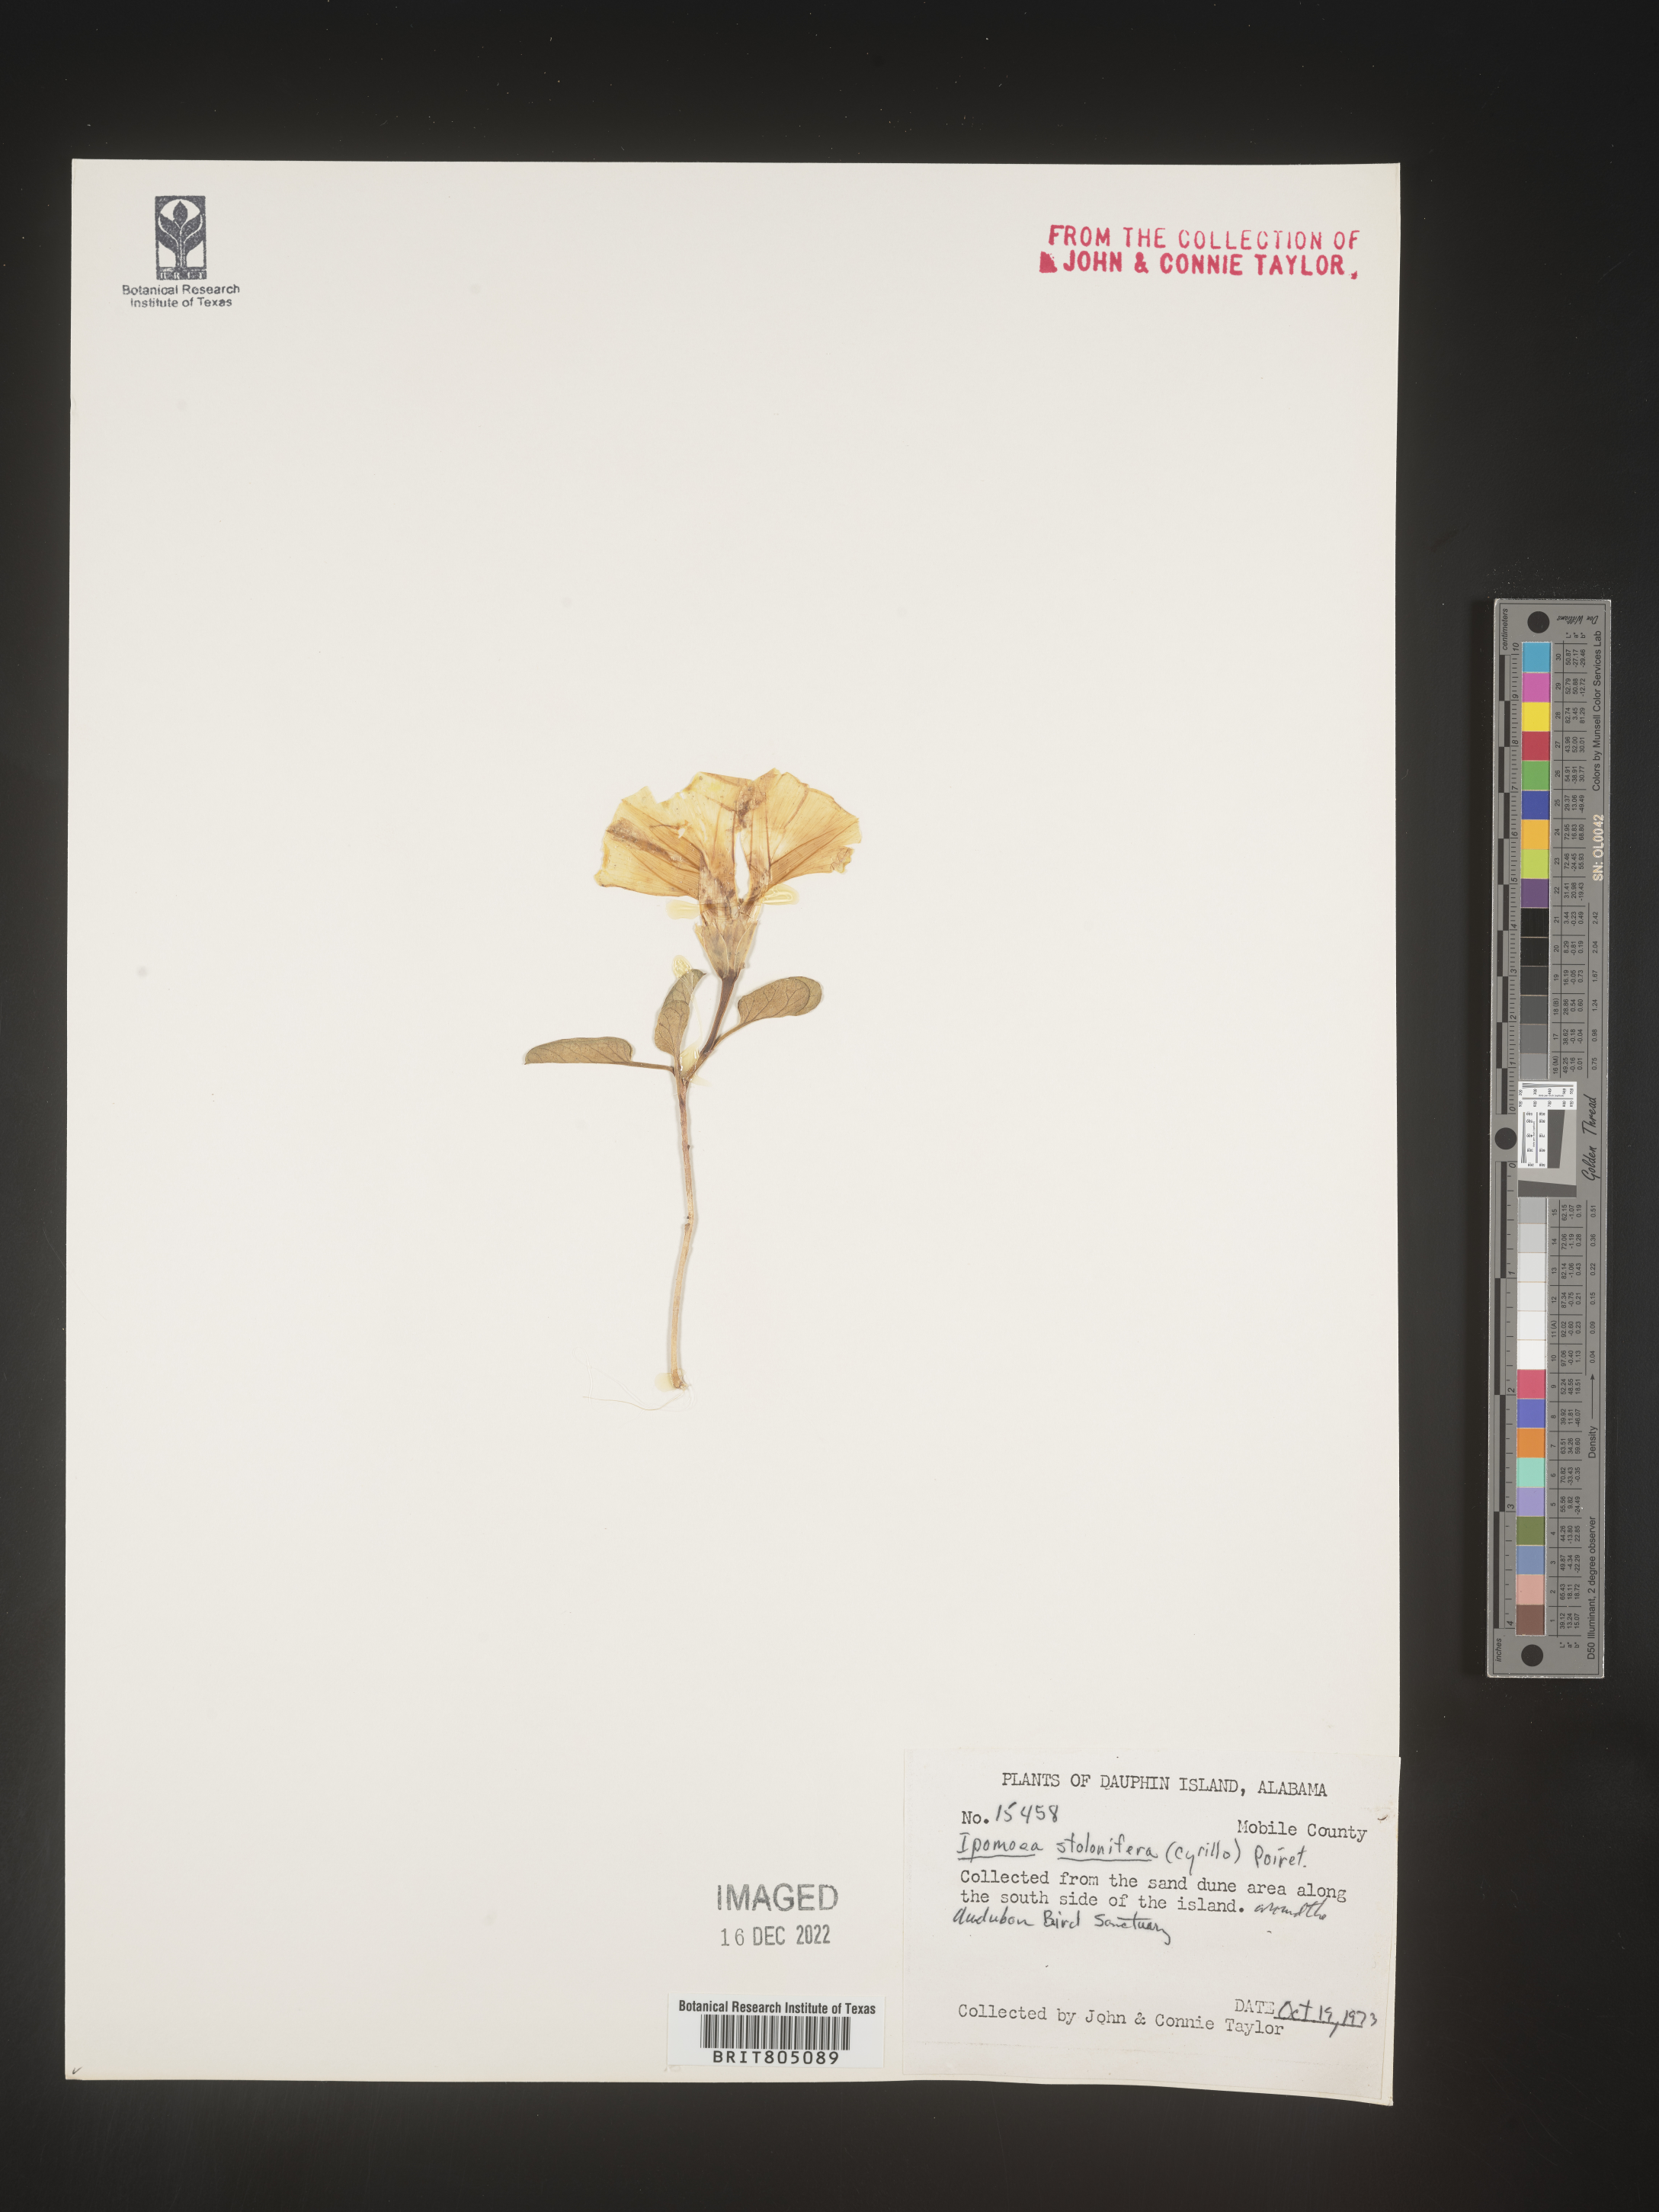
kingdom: Plantae
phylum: Tracheophyta
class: Magnoliopsida
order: Solanales
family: Convolvulaceae
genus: Ipomoea
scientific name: Ipomoea imperati
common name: Fiddle-leaf morning-glory
